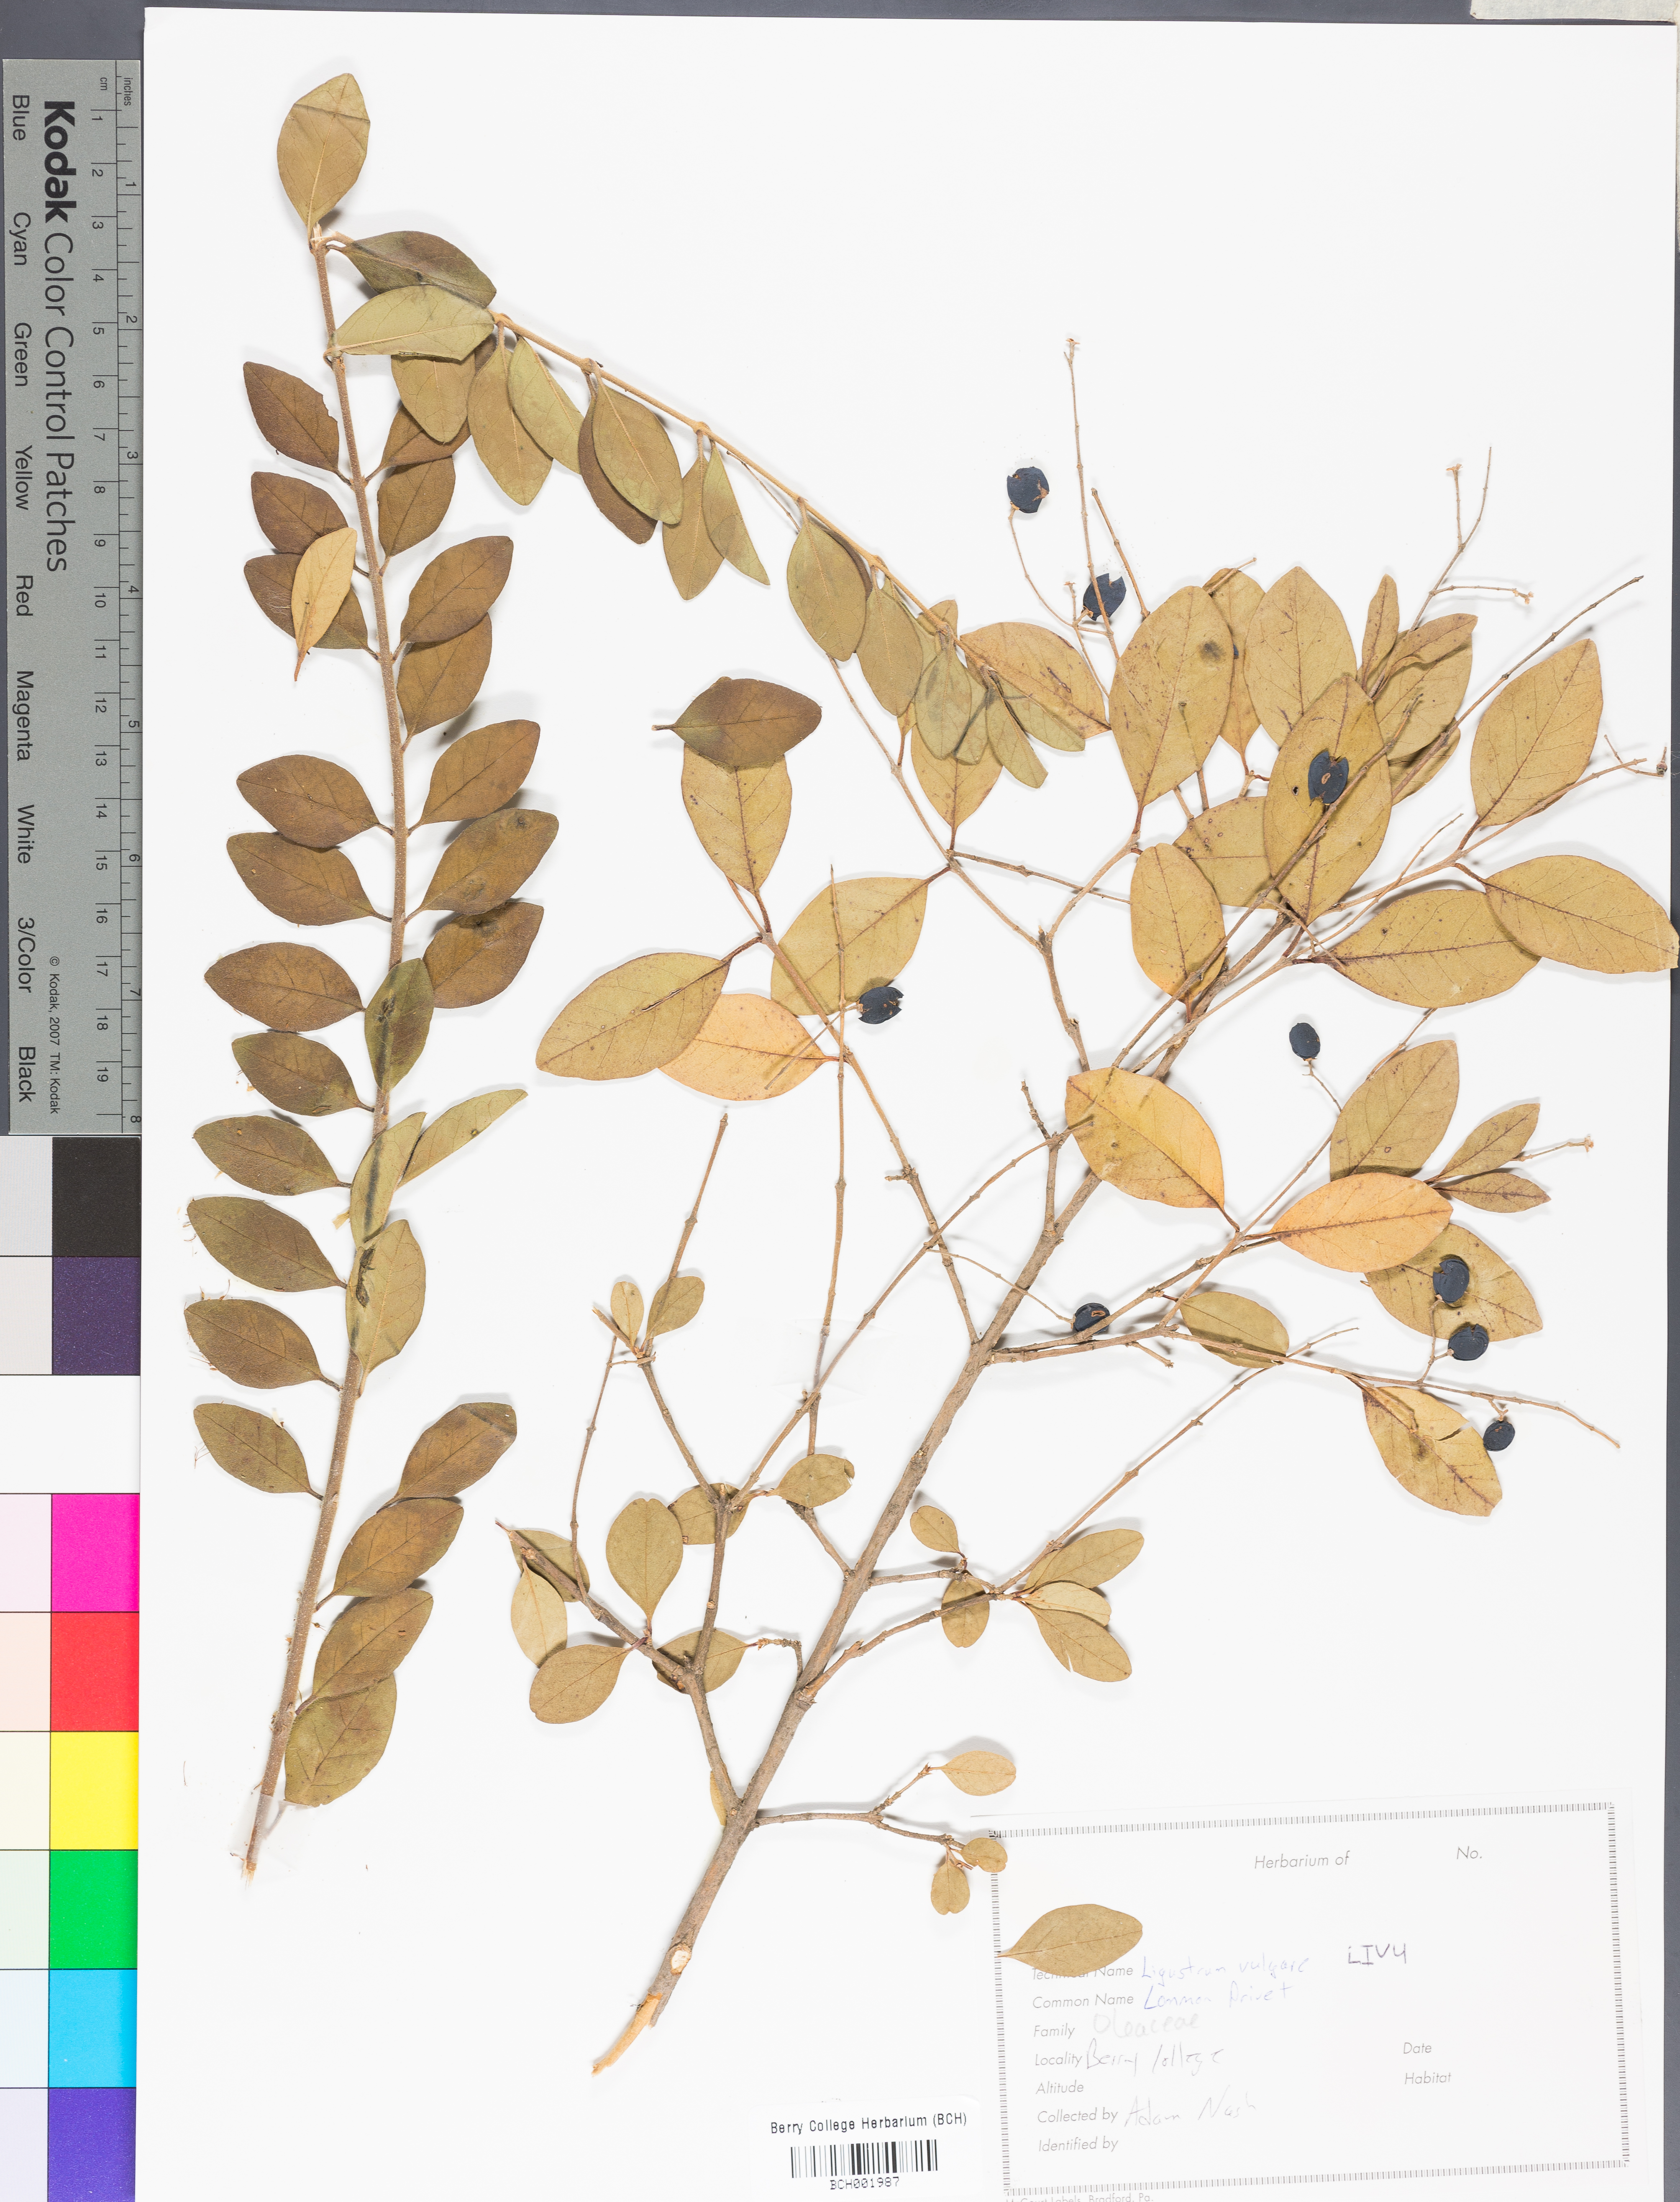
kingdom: Plantae
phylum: Tracheophyta
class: Magnoliopsida
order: Lamiales
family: Oleaceae
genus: Ligustrum
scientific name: Ligustrum vulgare
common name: Wild privet
